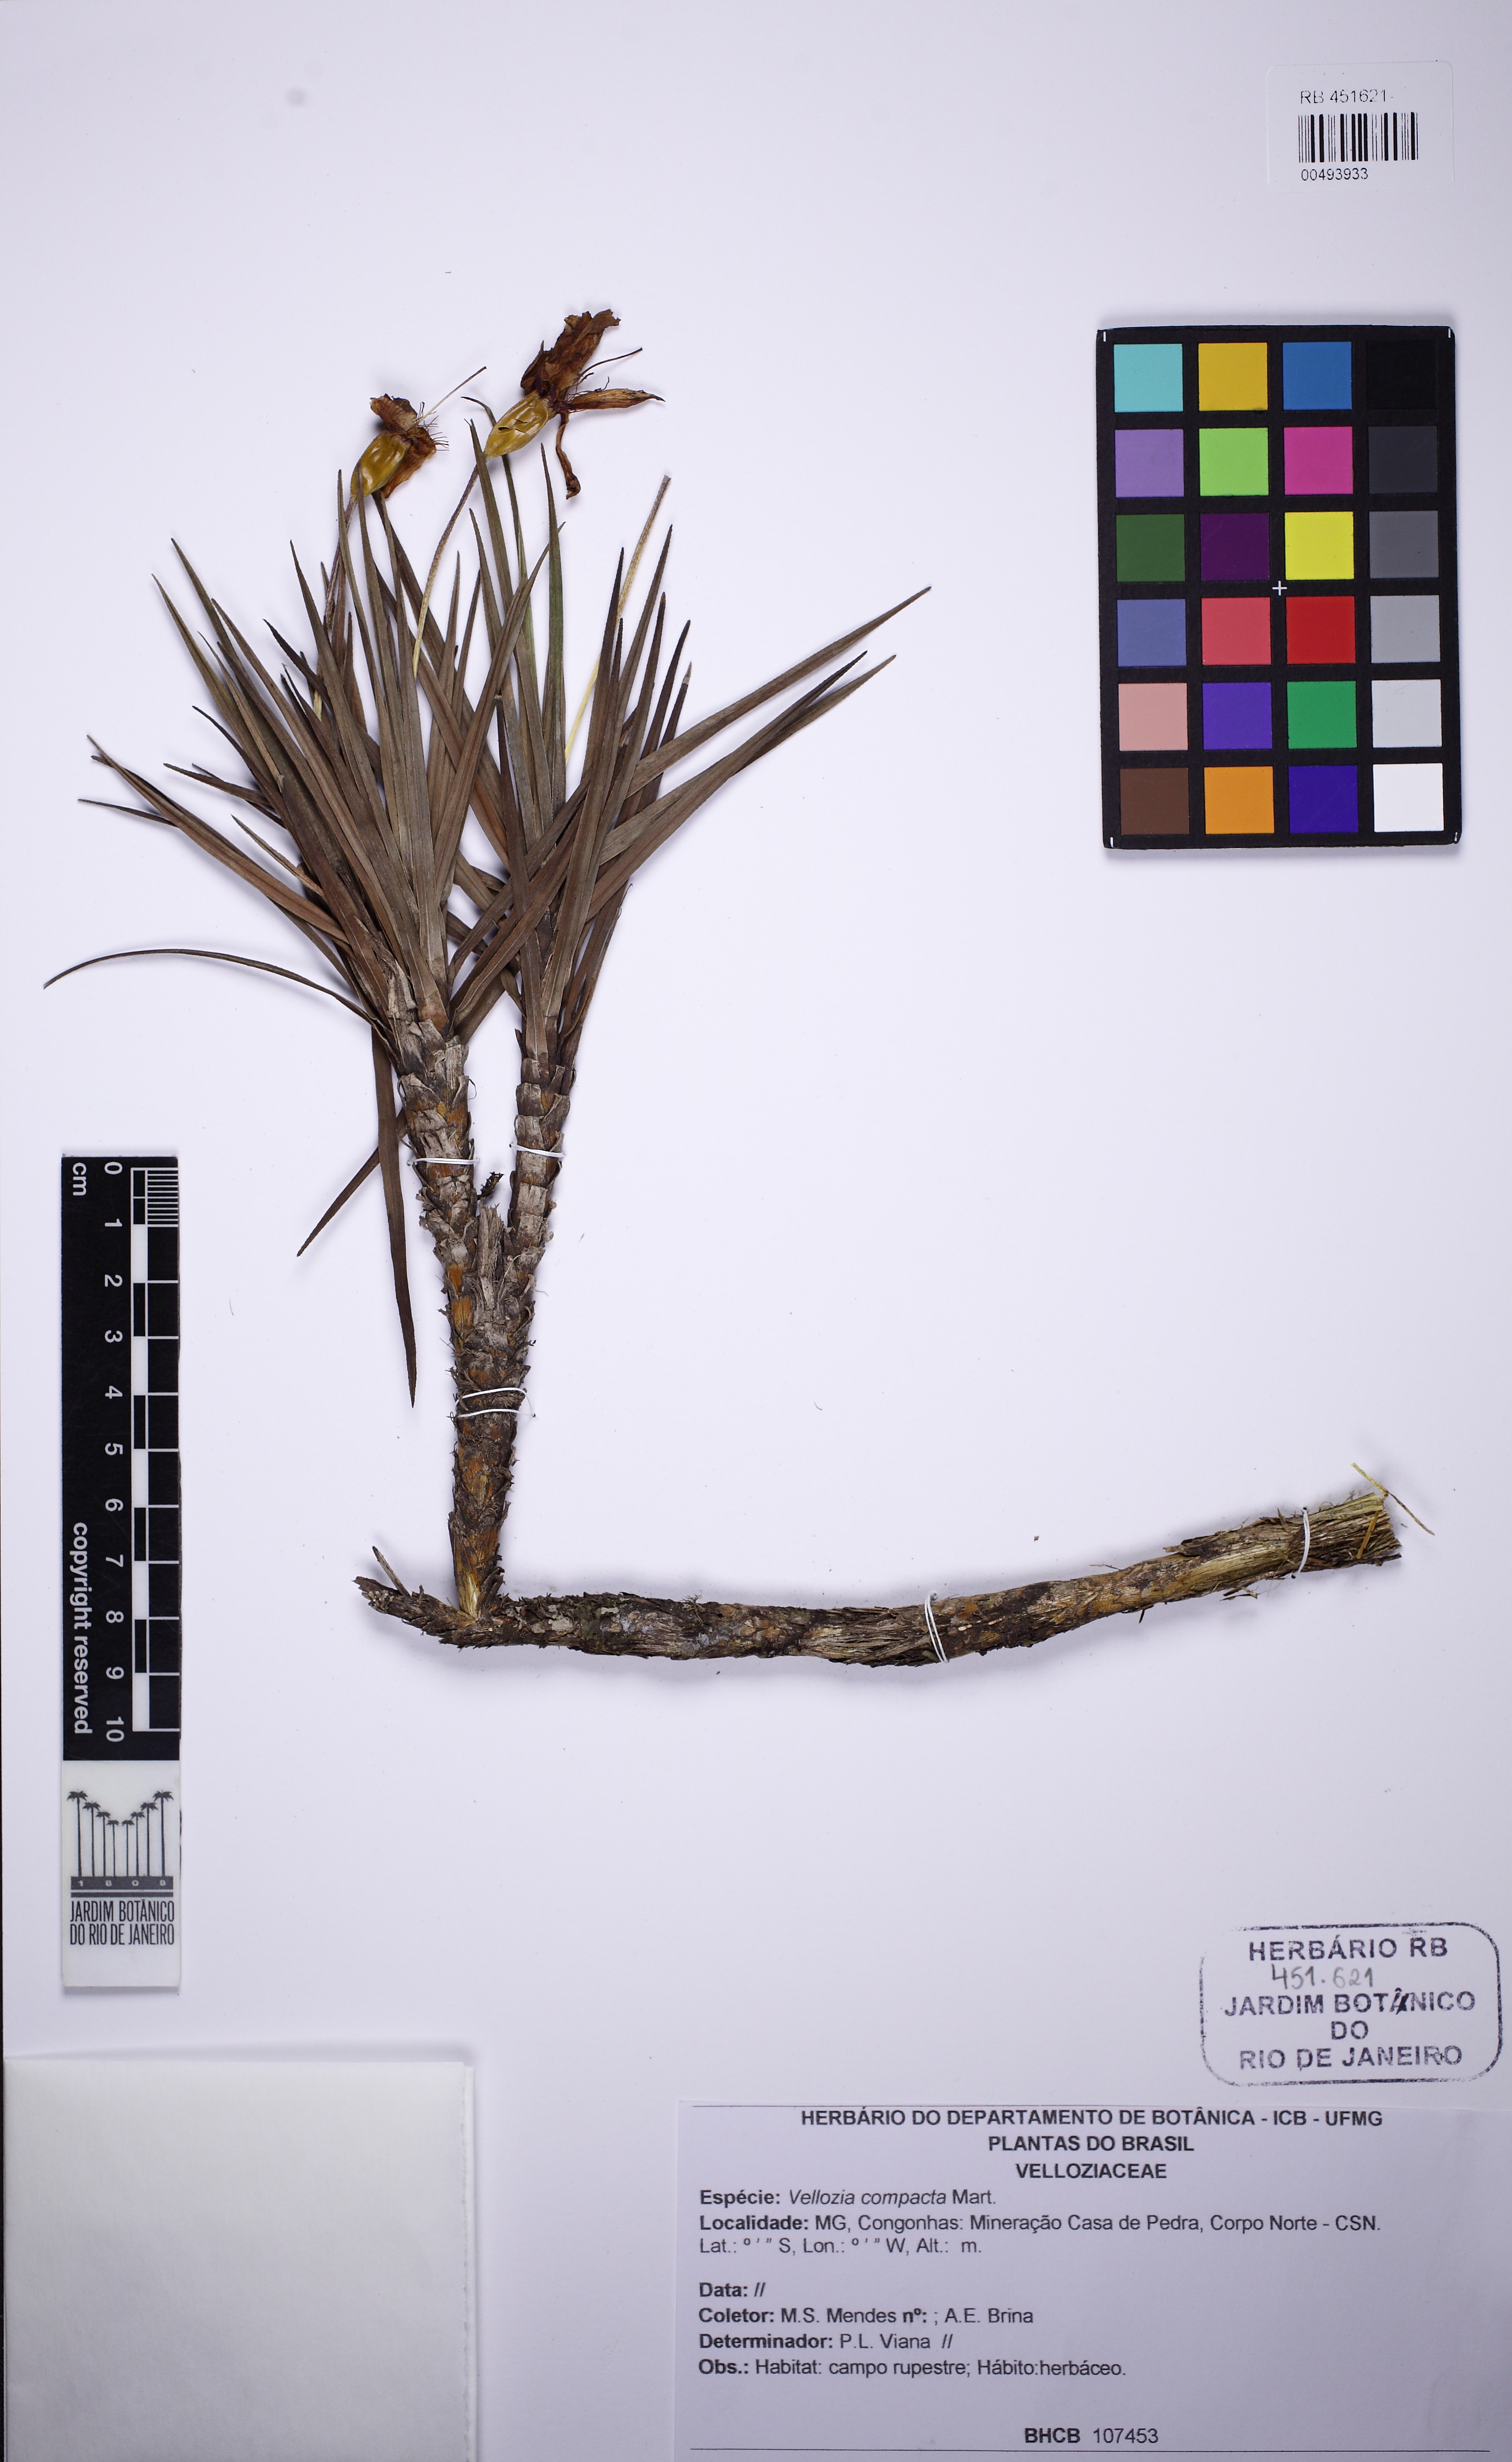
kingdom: Plantae
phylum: Tracheophyta
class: Liliopsida
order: Pandanales
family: Velloziaceae
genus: Vellozia
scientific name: Vellozia compacta
